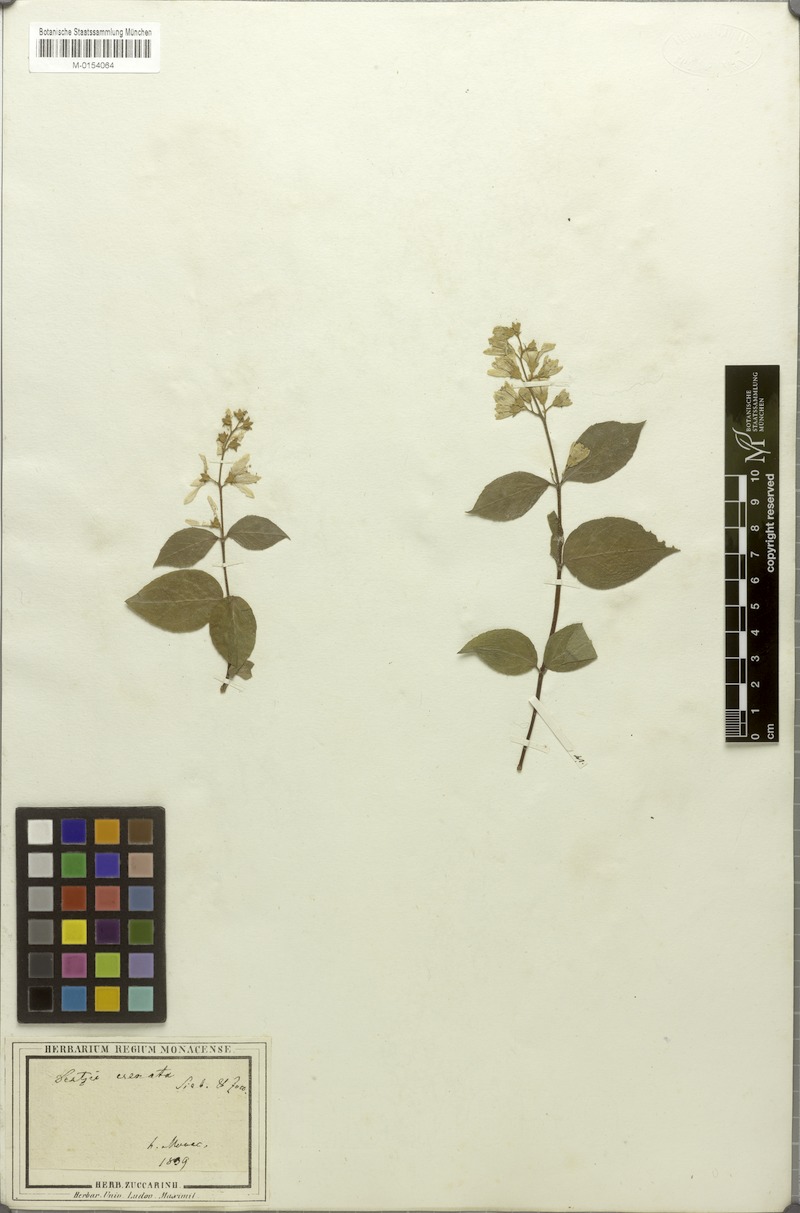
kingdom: Plantae
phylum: Tracheophyta
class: Magnoliopsida
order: Cornales
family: Hydrangeaceae
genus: Deutzia
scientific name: Deutzia crenata
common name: Deutzia
